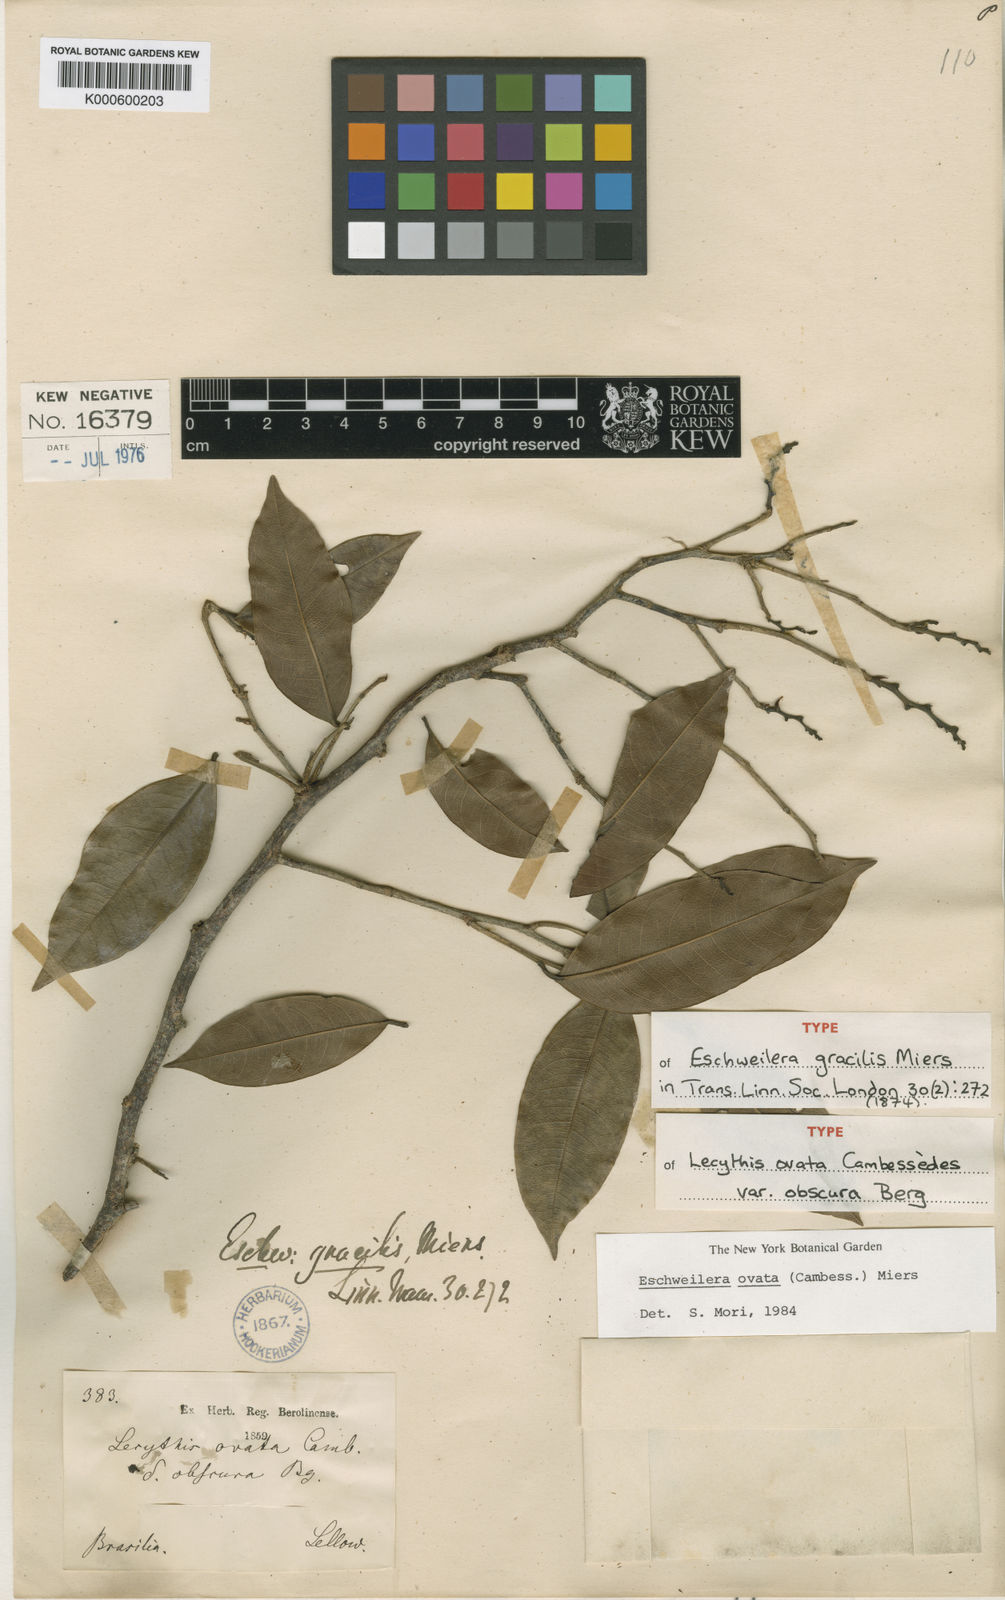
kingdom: Plantae
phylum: Tracheophyta
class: Magnoliopsida
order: Ericales
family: Lecythidaceae
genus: Eschweilera
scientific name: Eschweilera ovata
